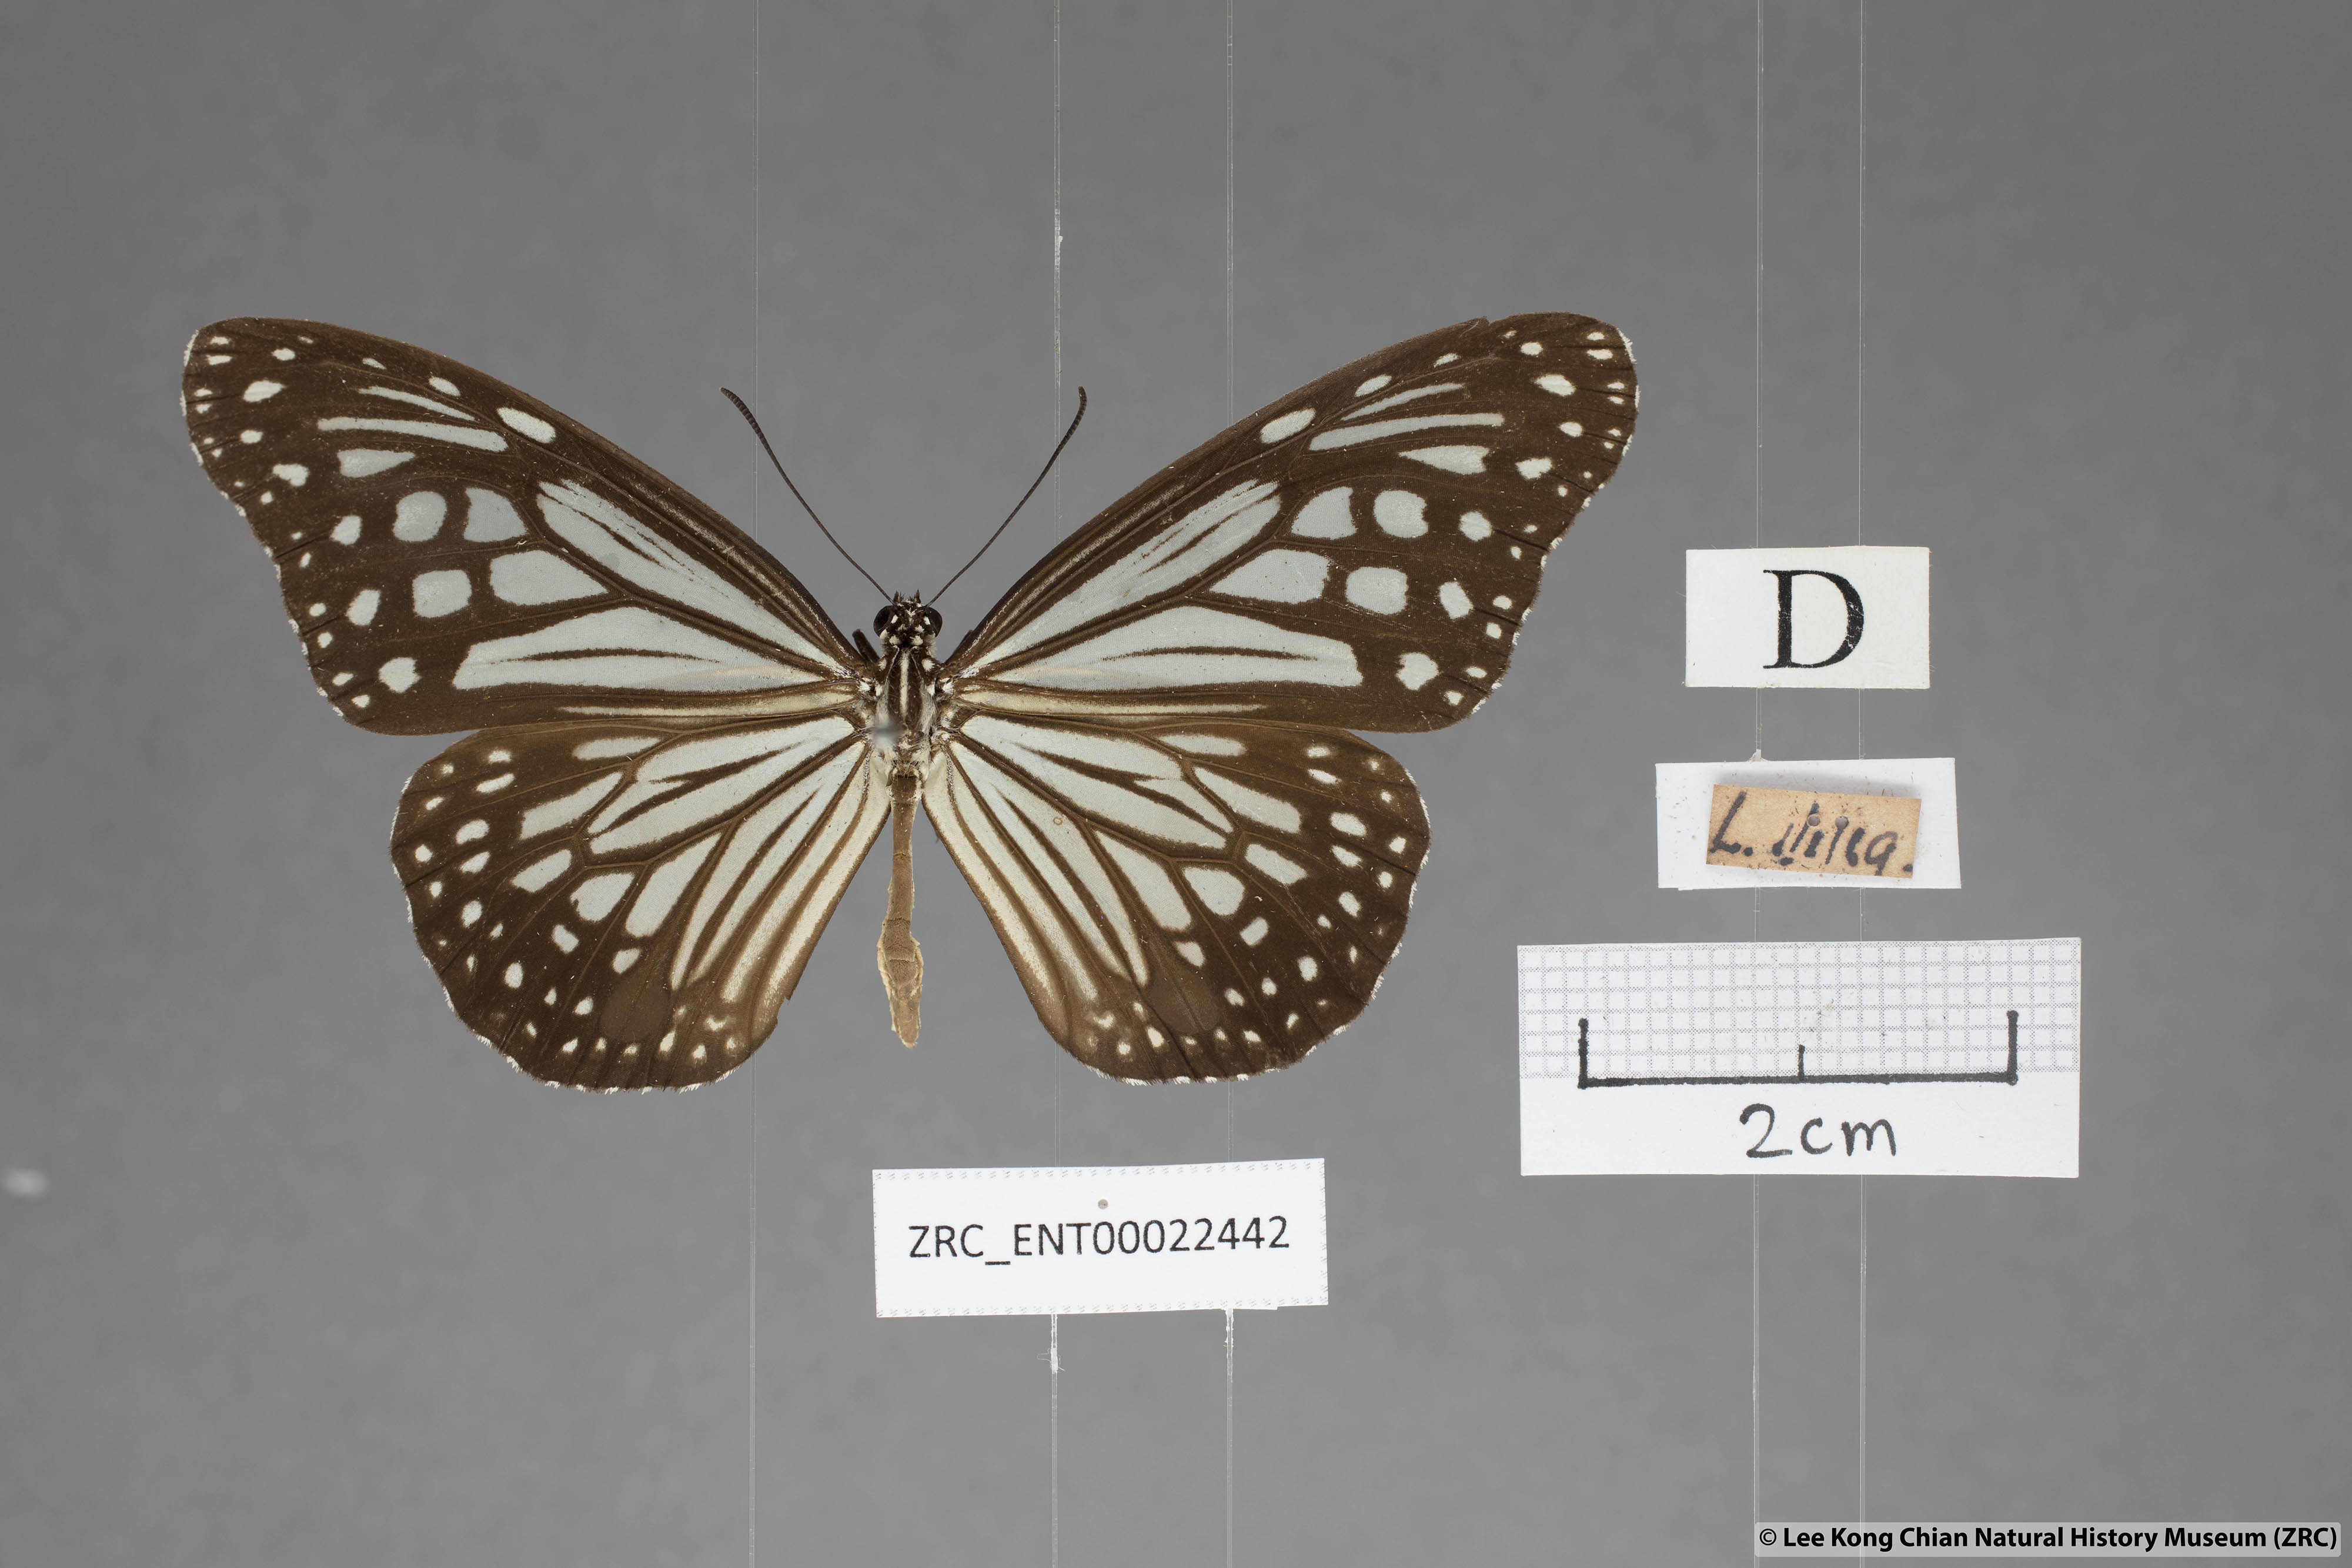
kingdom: Animalia
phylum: Arthropoda
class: Insecta
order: Lepidoptera
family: Nymphalidae
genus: Parantica
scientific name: Parantica aglea
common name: Glassy tiger
